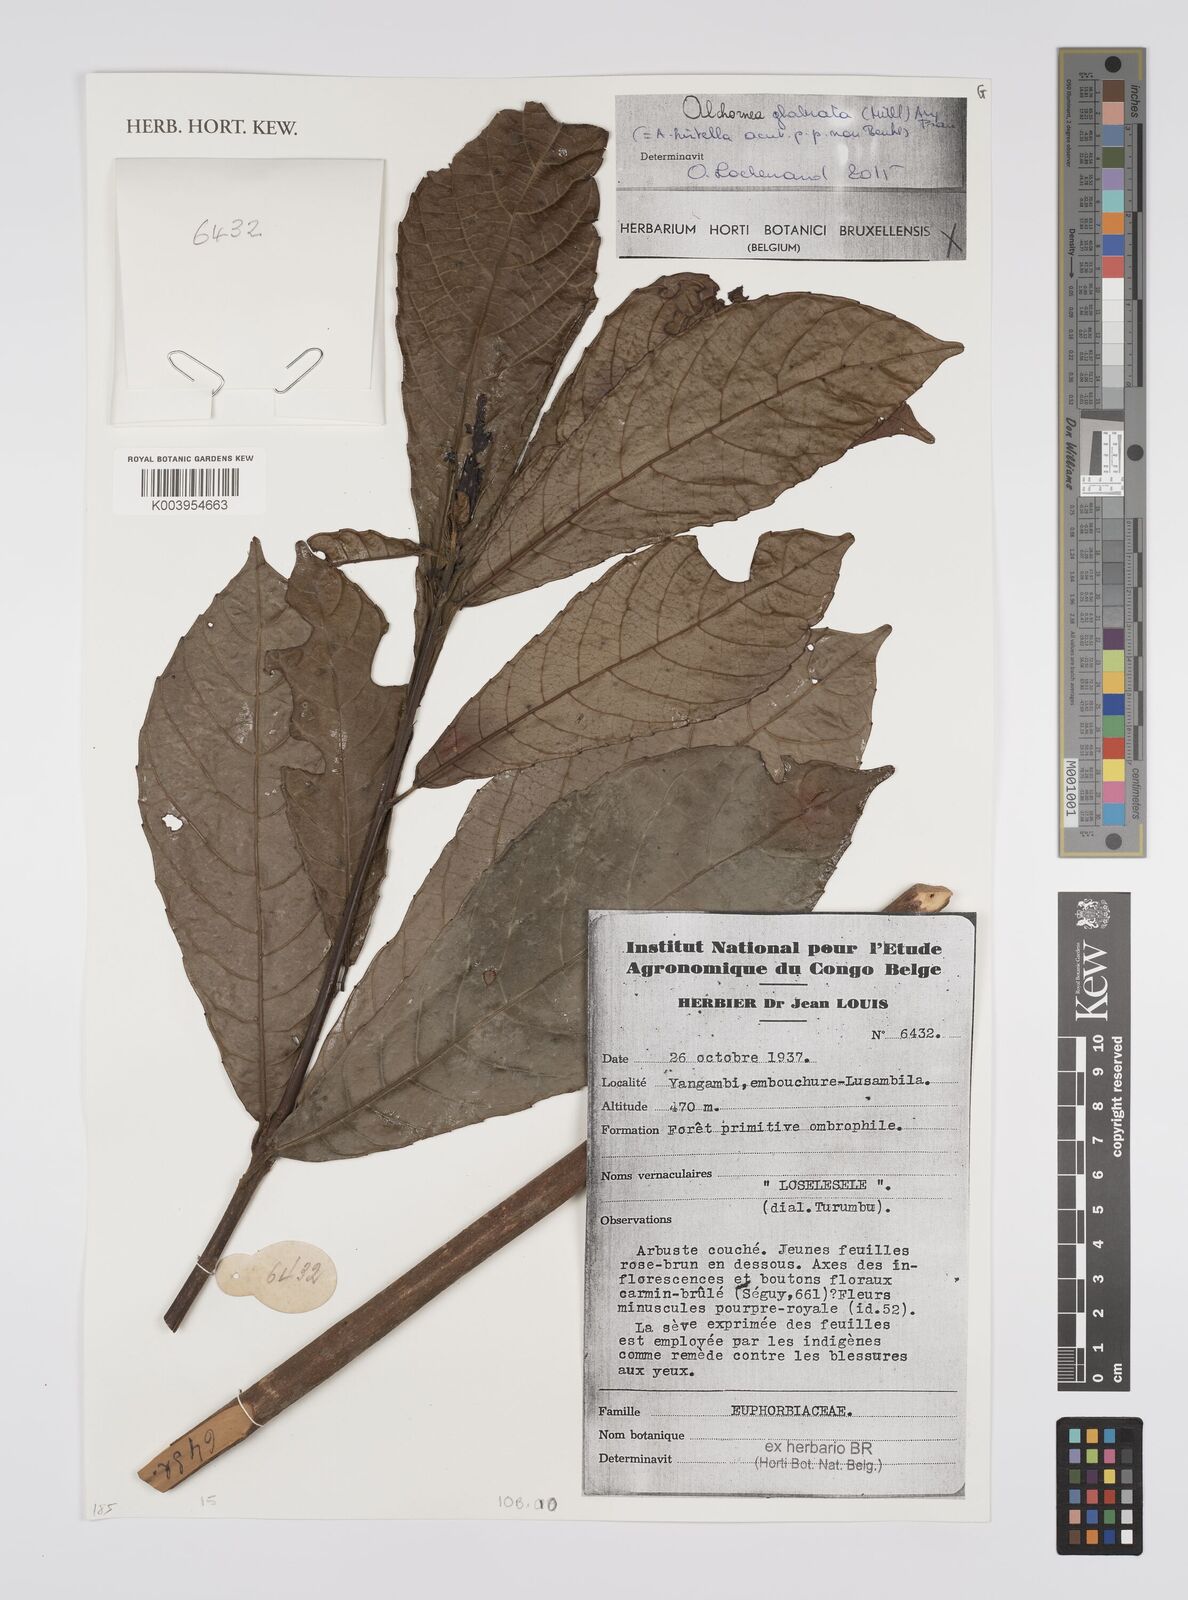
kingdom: Plantae
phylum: Tracheophyta
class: Magnoliopsida
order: Malpighiales
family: Euphorbiaceae
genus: Alchornea
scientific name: Alchornea hirtella
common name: Forest bead-string
